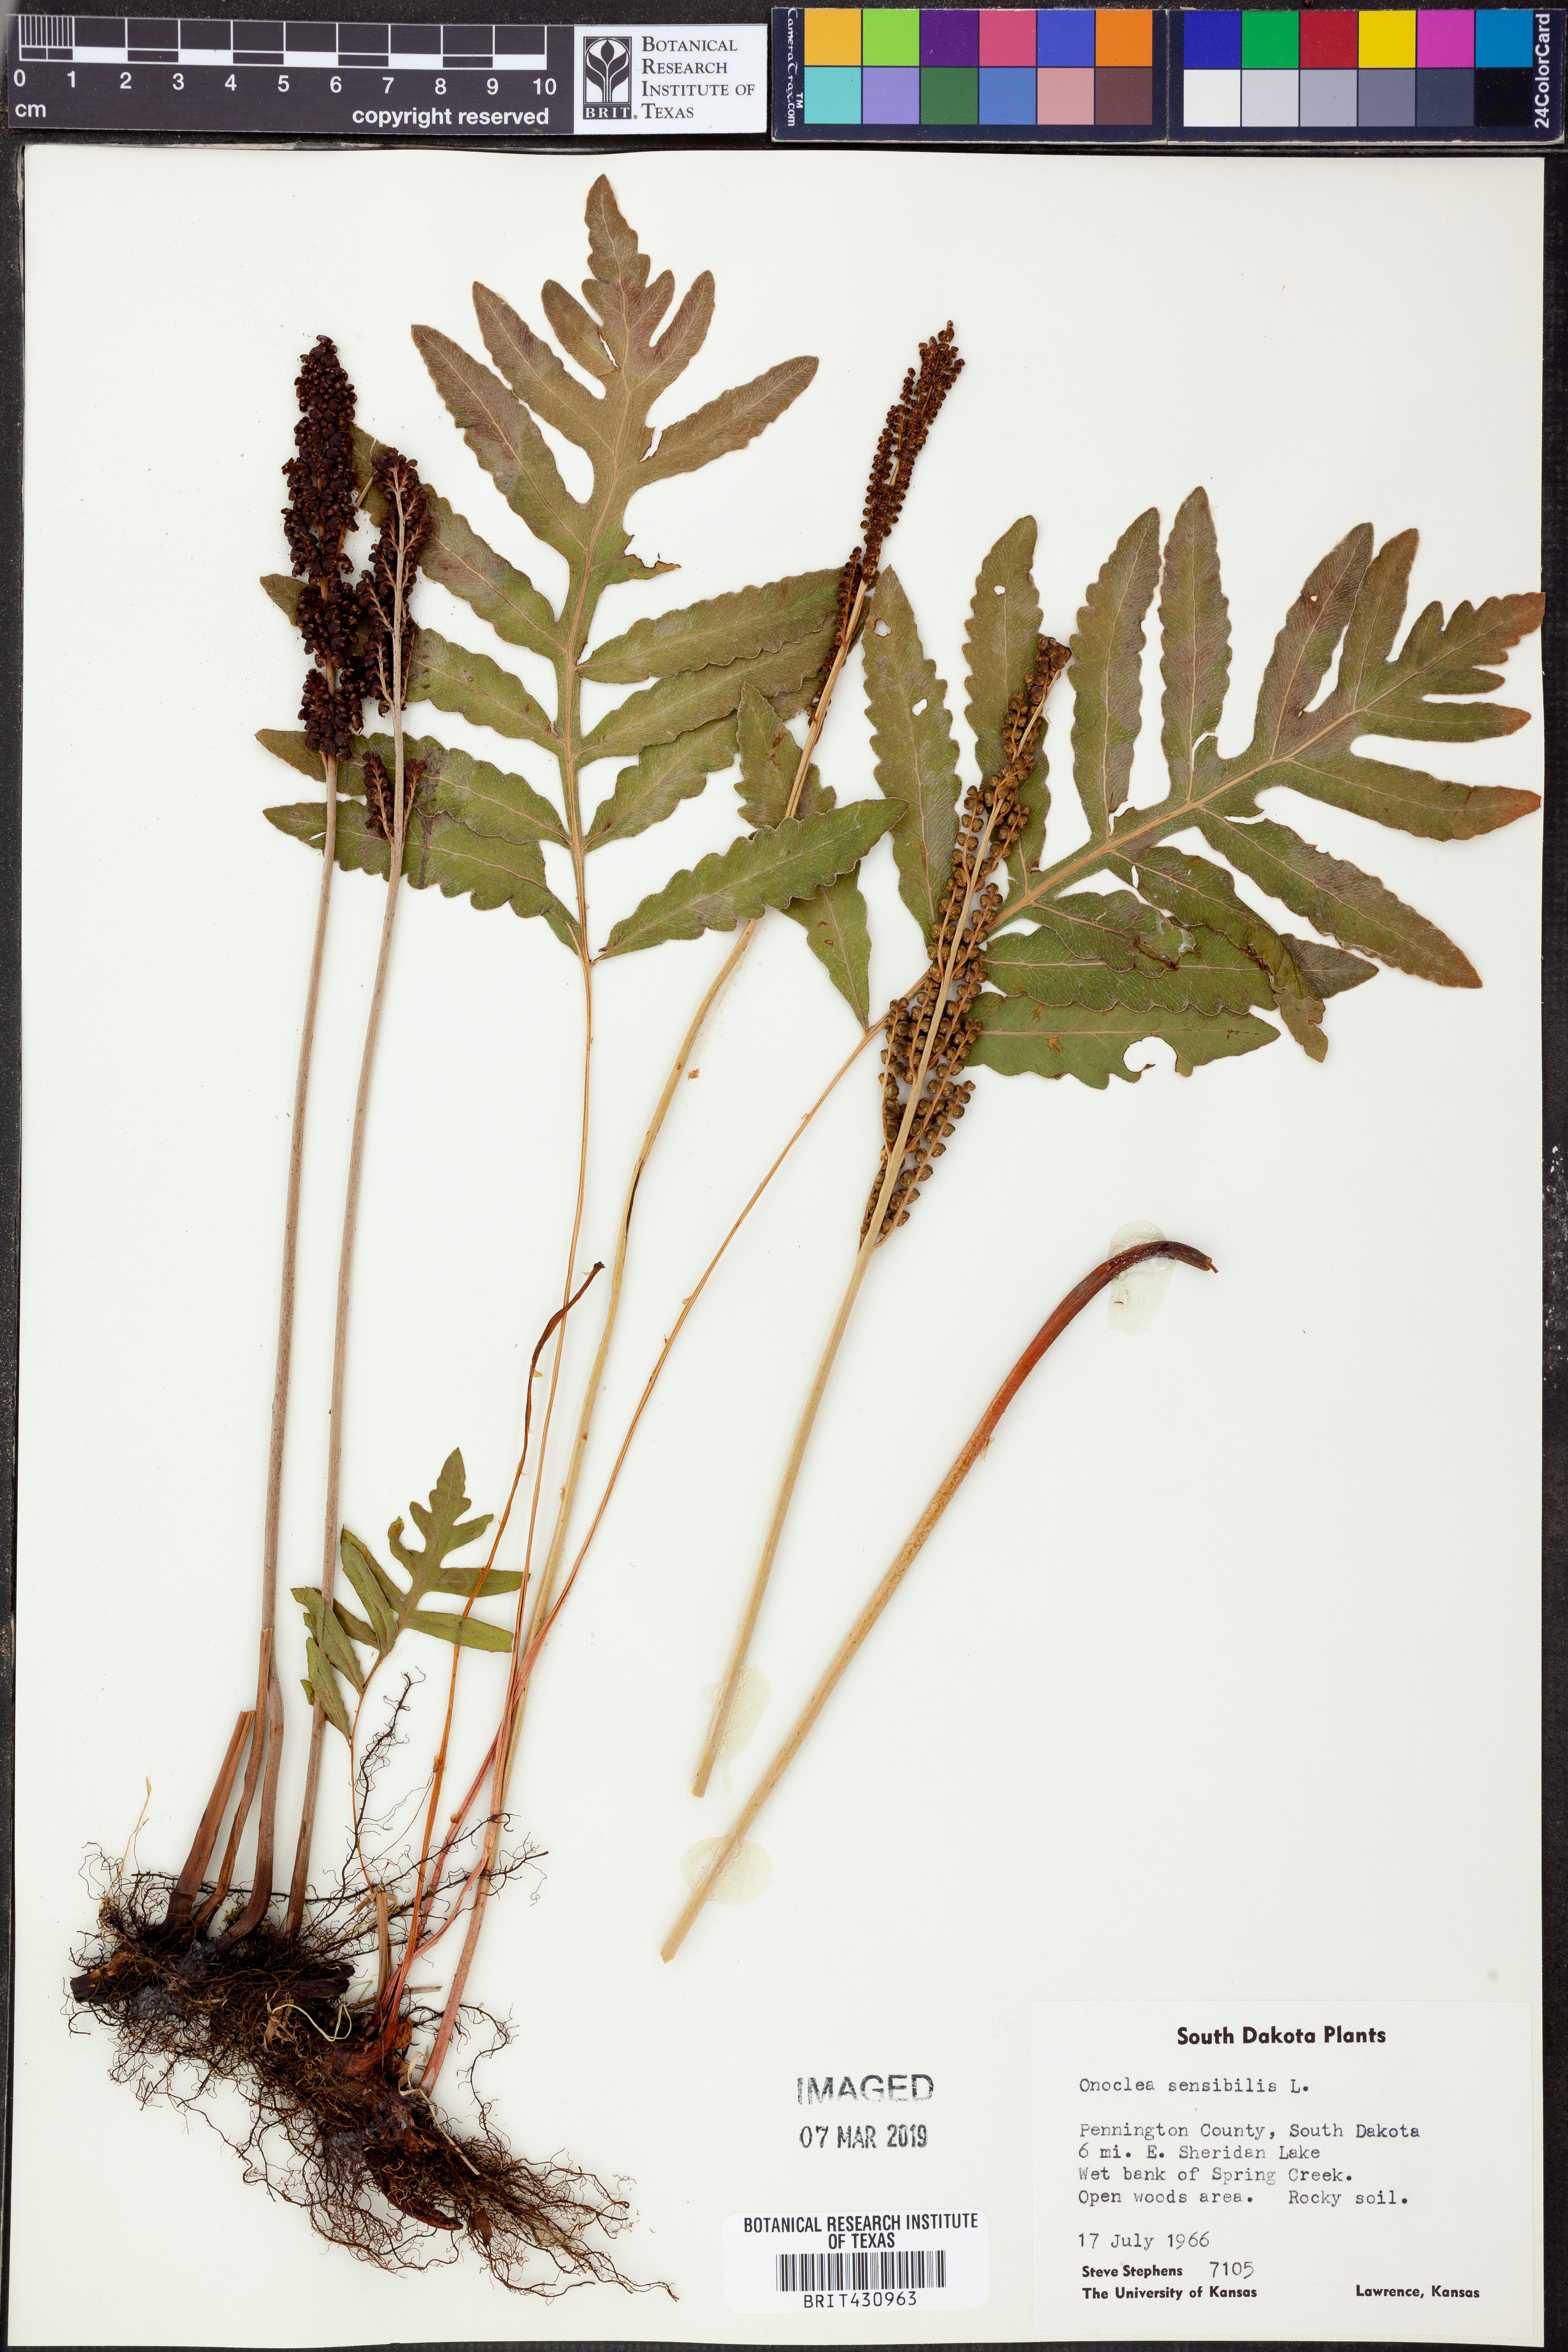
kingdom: Plantae
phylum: Tracheophyta
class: Polypodiopsida
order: Polypodiales
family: Onocleaceae
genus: Onoclea
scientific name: Onoclea sensibilis
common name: Sensitive fern
